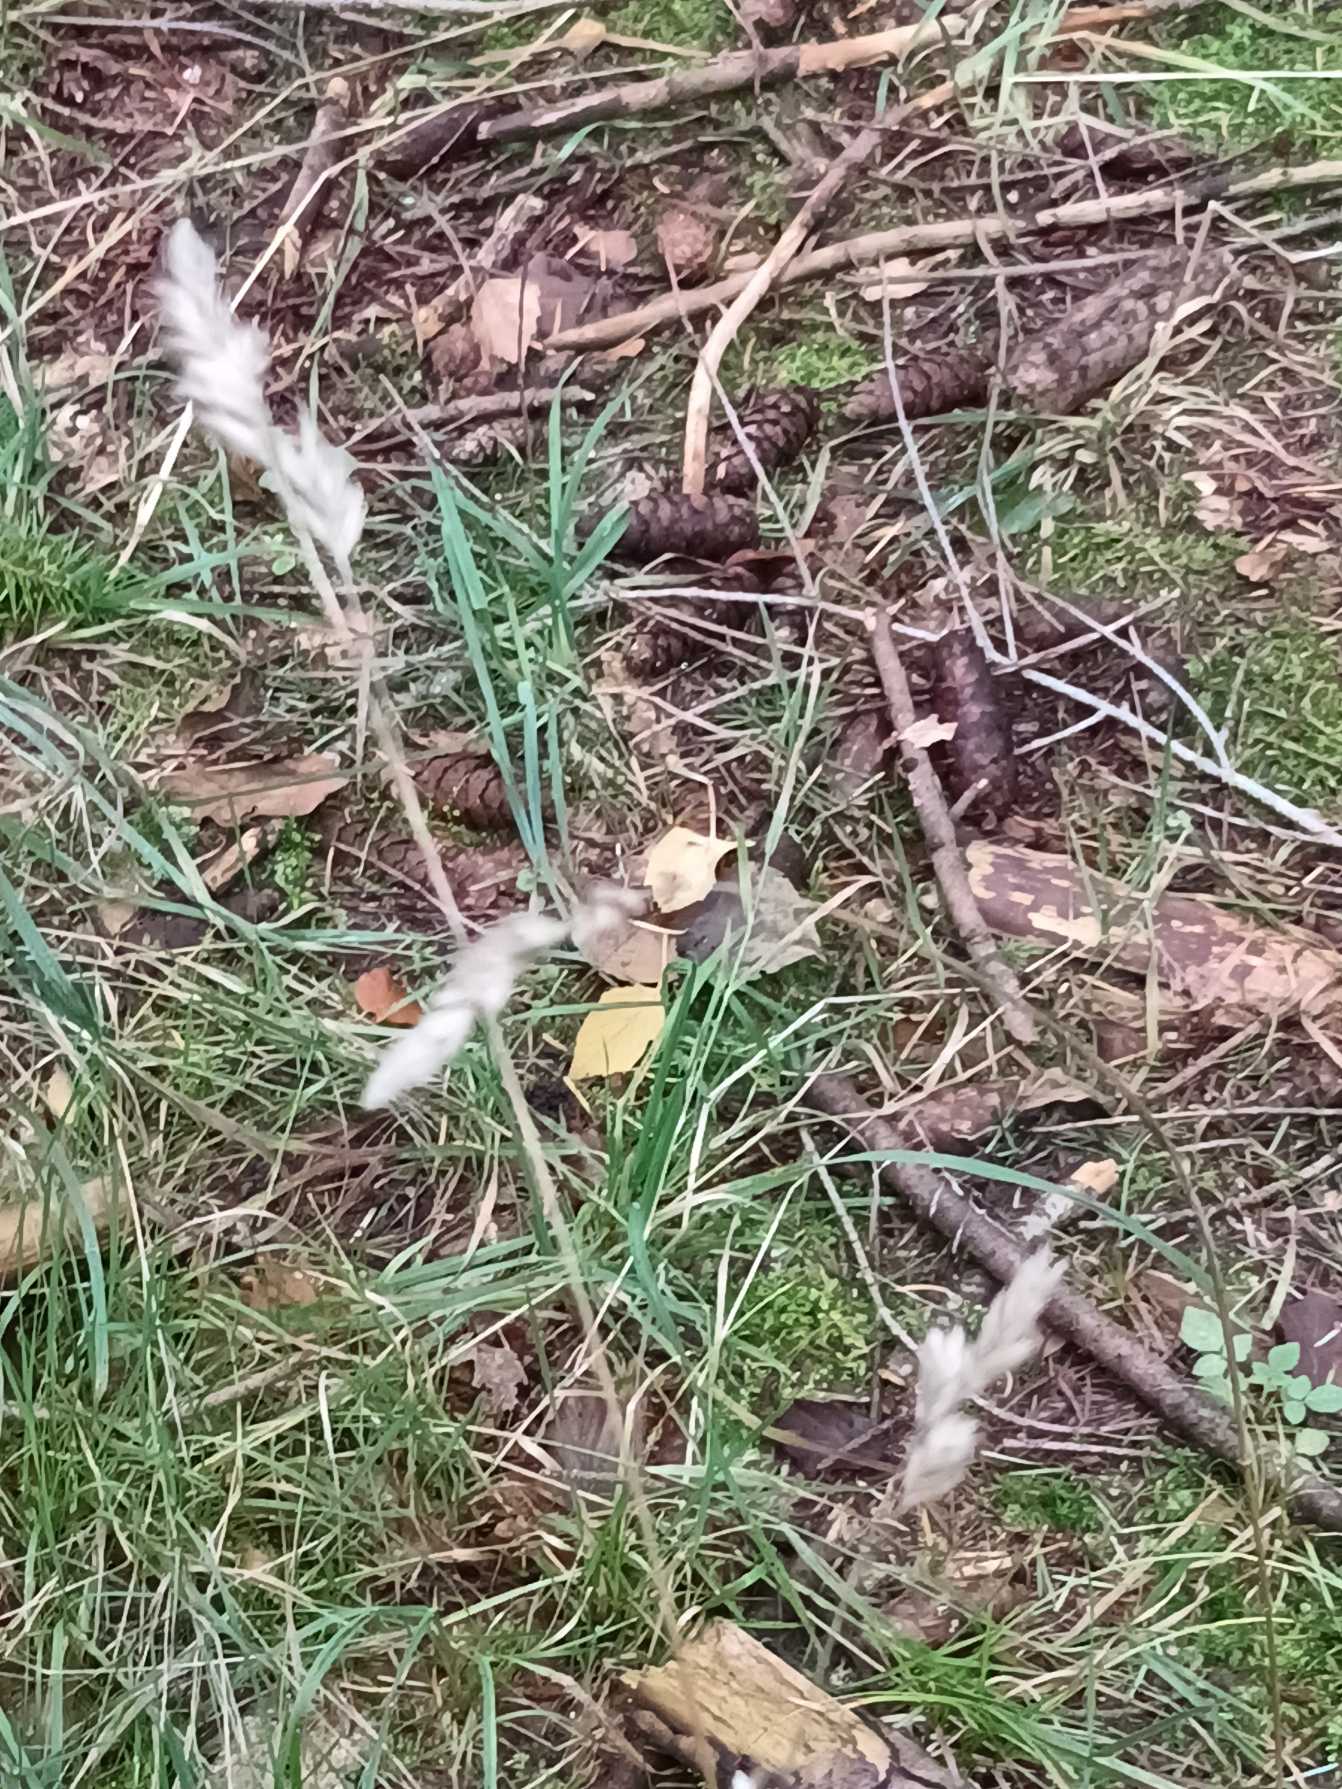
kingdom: Plantae
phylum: Tracheophyta
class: Liliopsida
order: Poales
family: Poaceae
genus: Dactylis
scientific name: Dactylis glomerata
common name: Almindelig hundegræs
